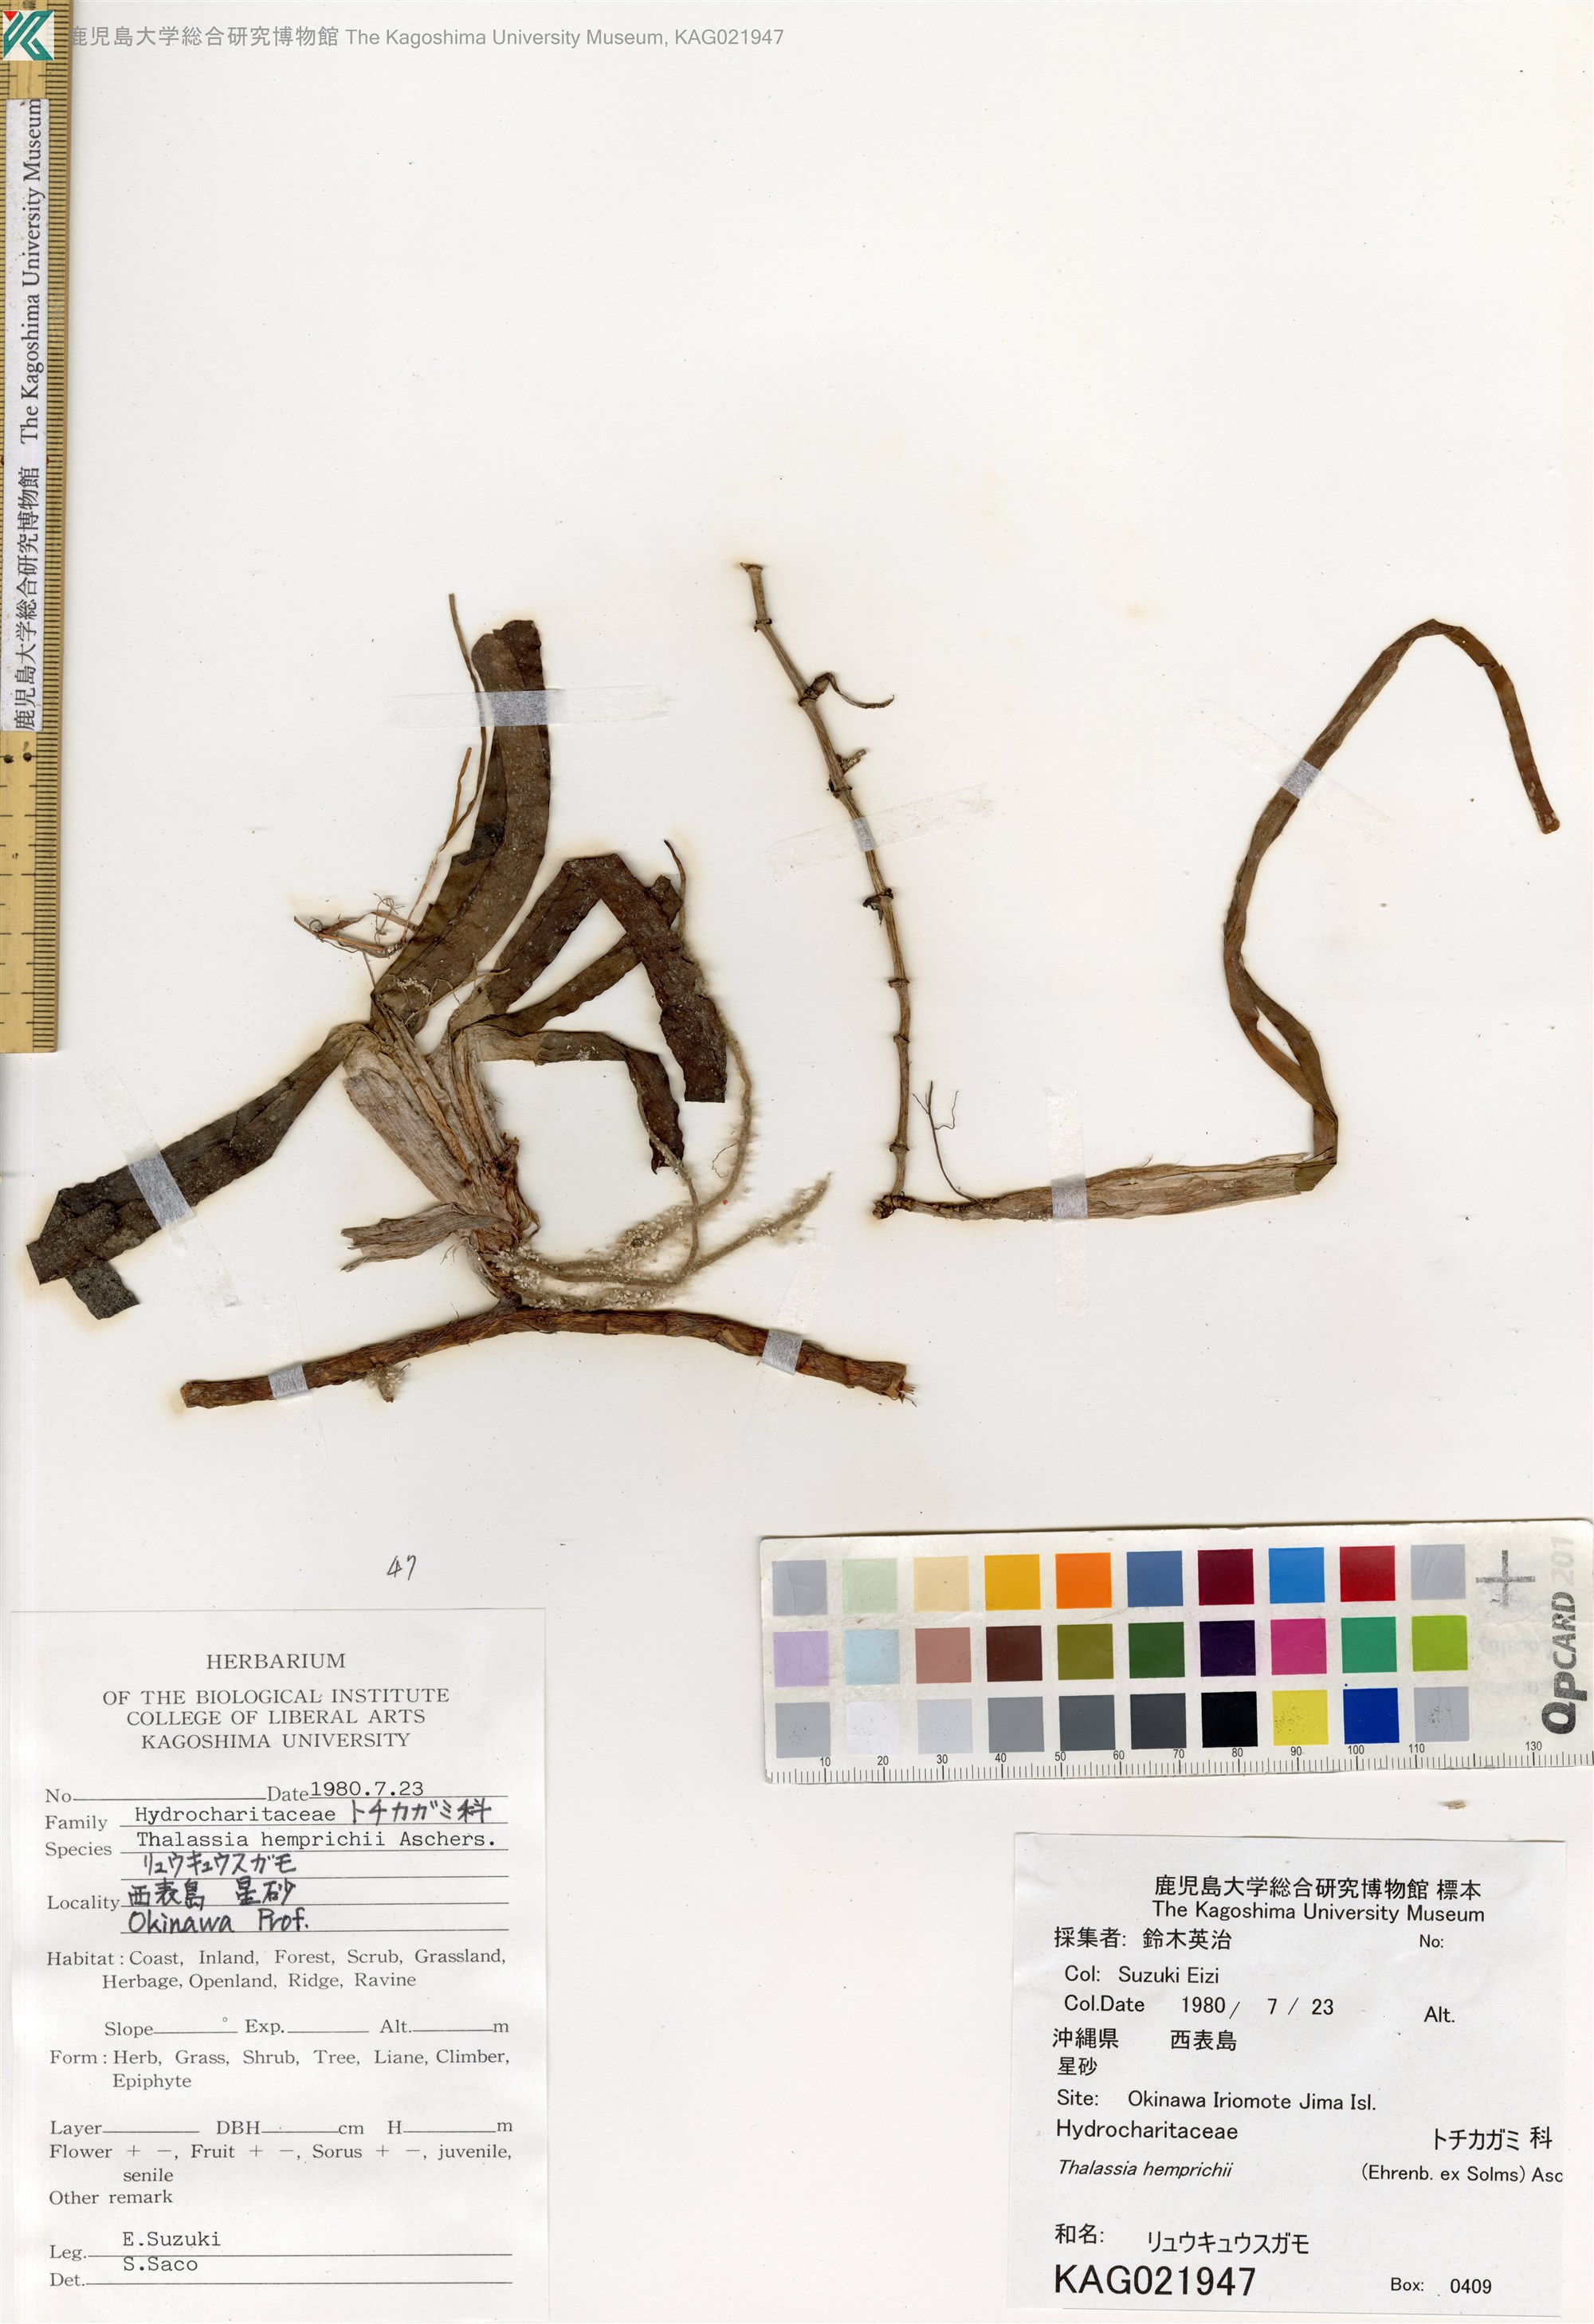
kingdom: Plantae
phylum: Tracheophyta
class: Liliopsida
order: Alismatales
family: Hydrocharitaceae
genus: Thalassia
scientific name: Thalassia hemprichii
